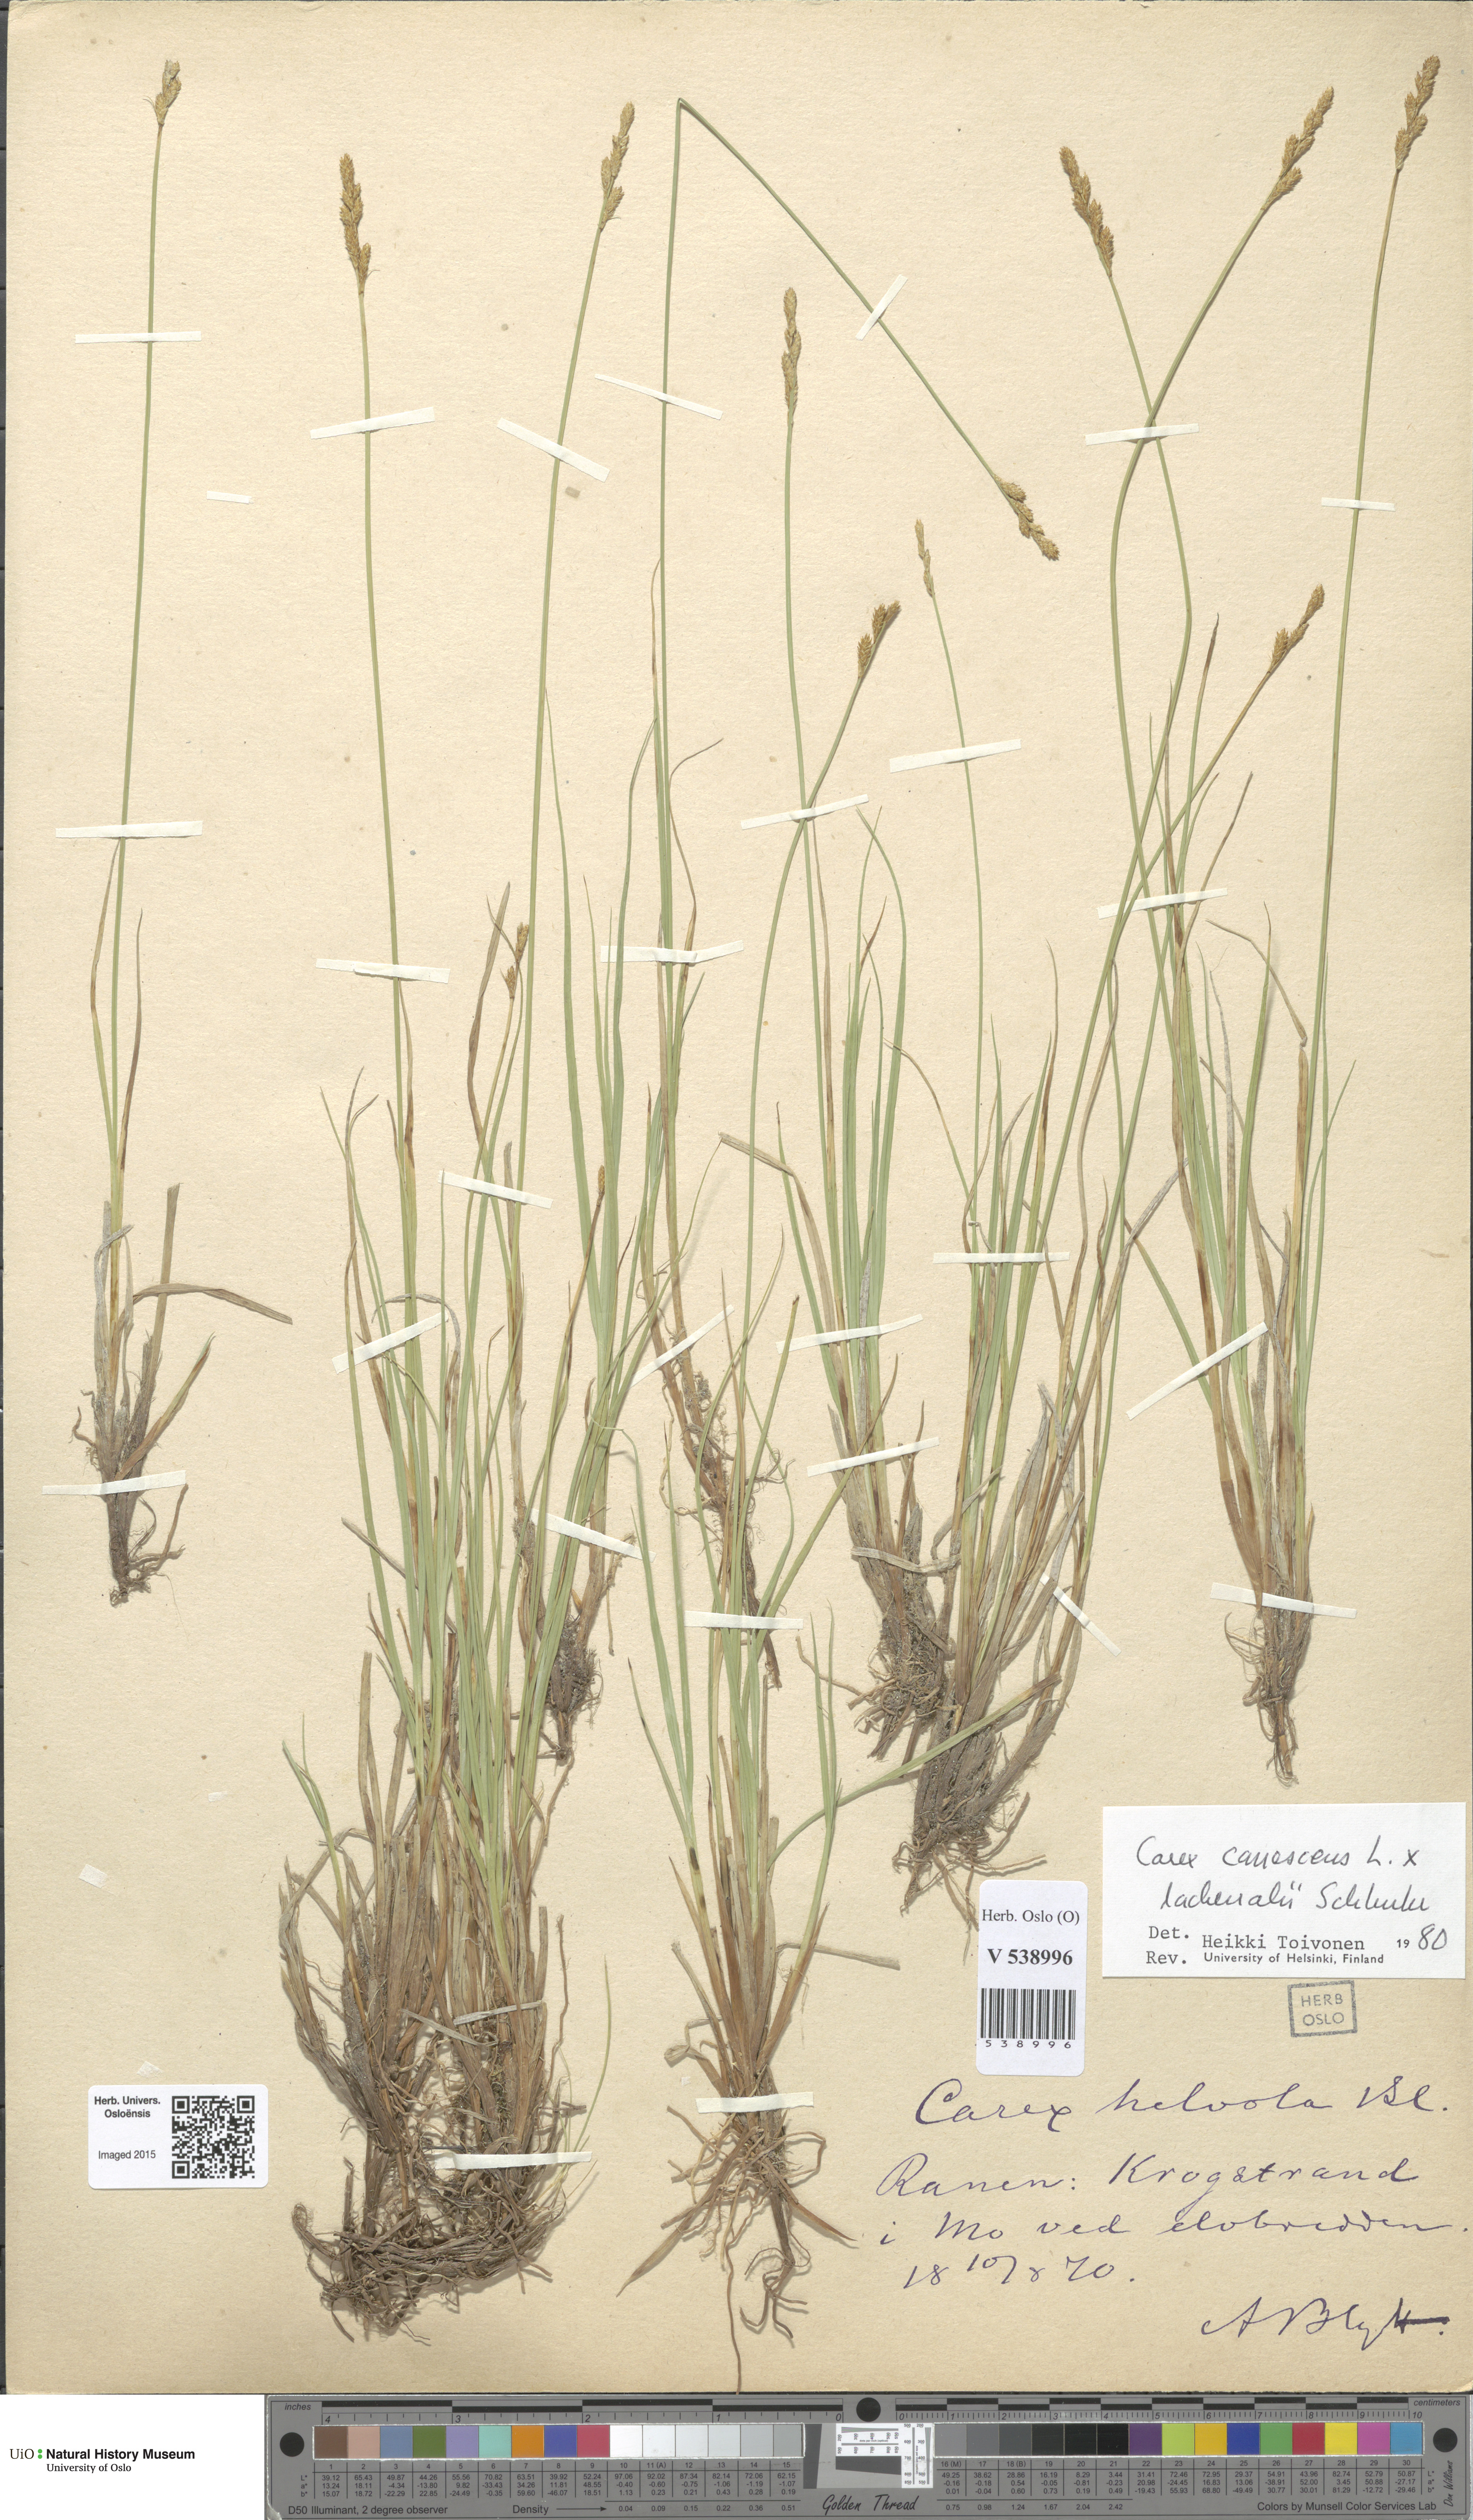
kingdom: Plantae
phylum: Tracheophyta
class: Liliopsida
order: Poales
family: Cyperaceae
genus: Carex
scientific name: Carex
